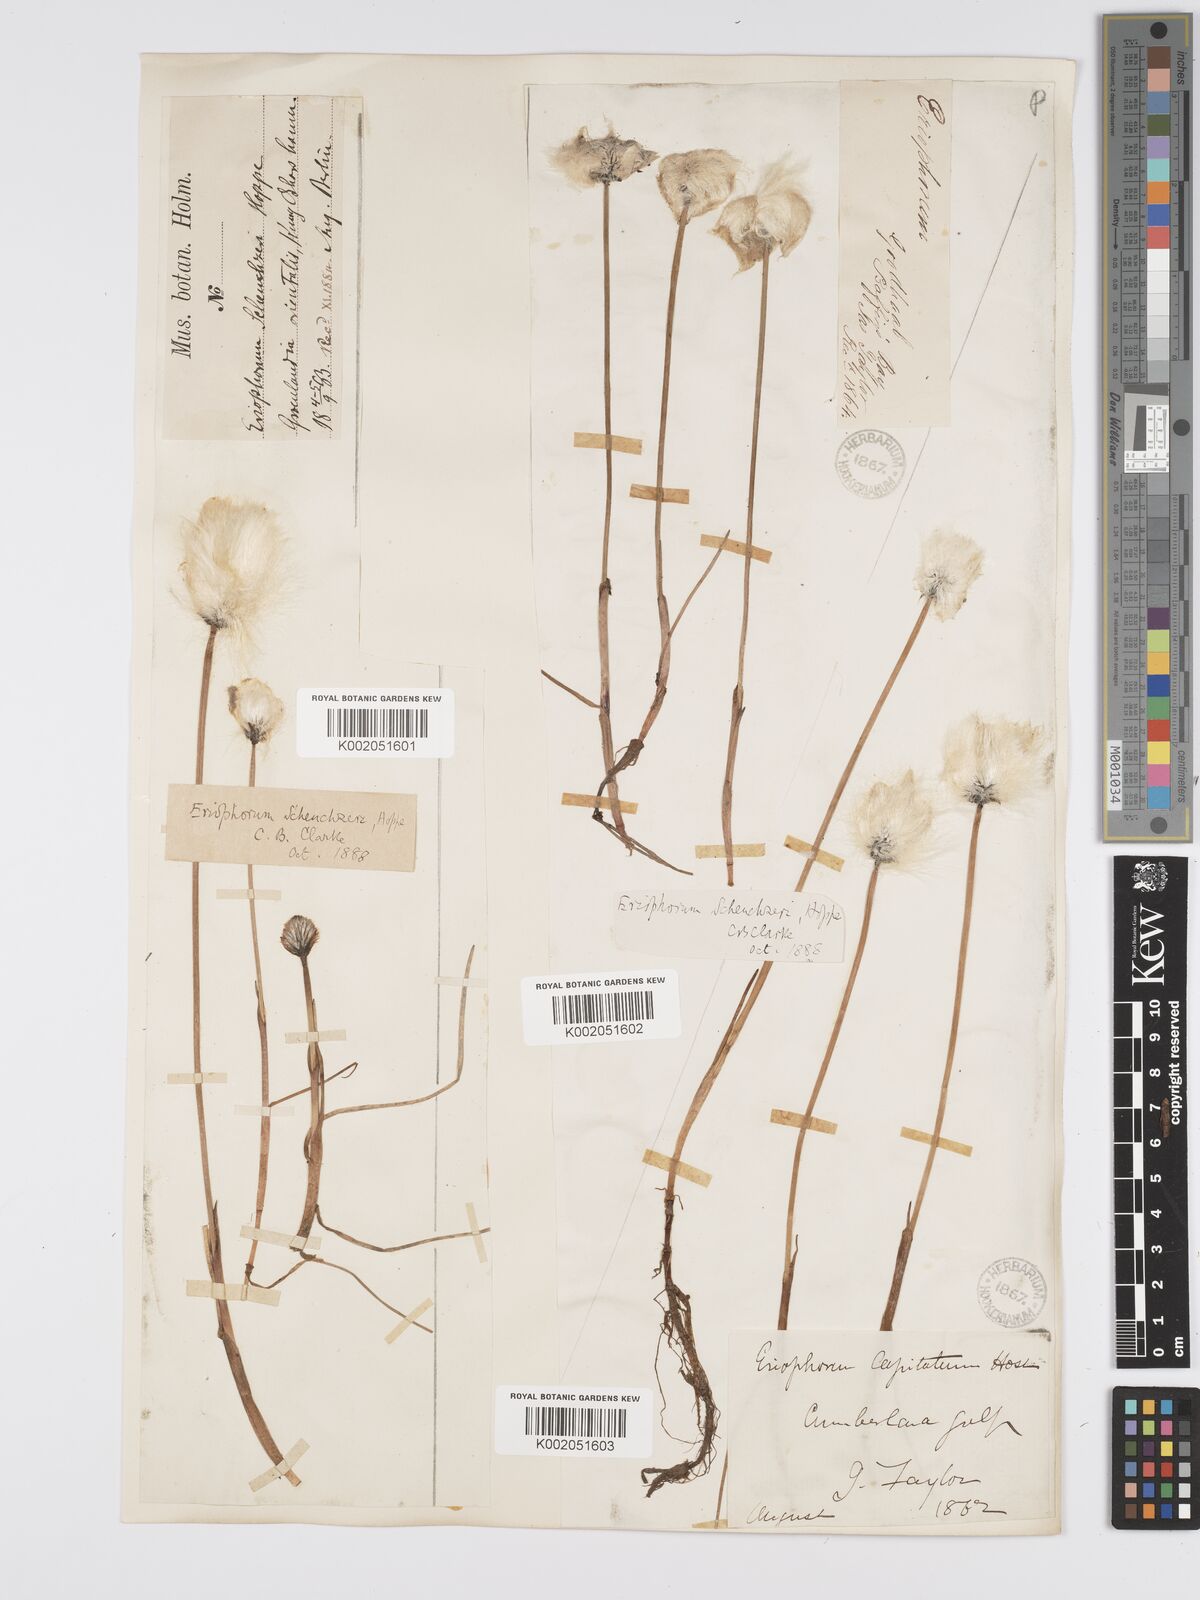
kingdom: Plantae
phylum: Tracheophyta
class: Liliopsida
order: Poales
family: Cyperaceae
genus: Eriophorum
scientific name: Eriophorum scheuchzeri
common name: Scheuchzer's cottongrass
